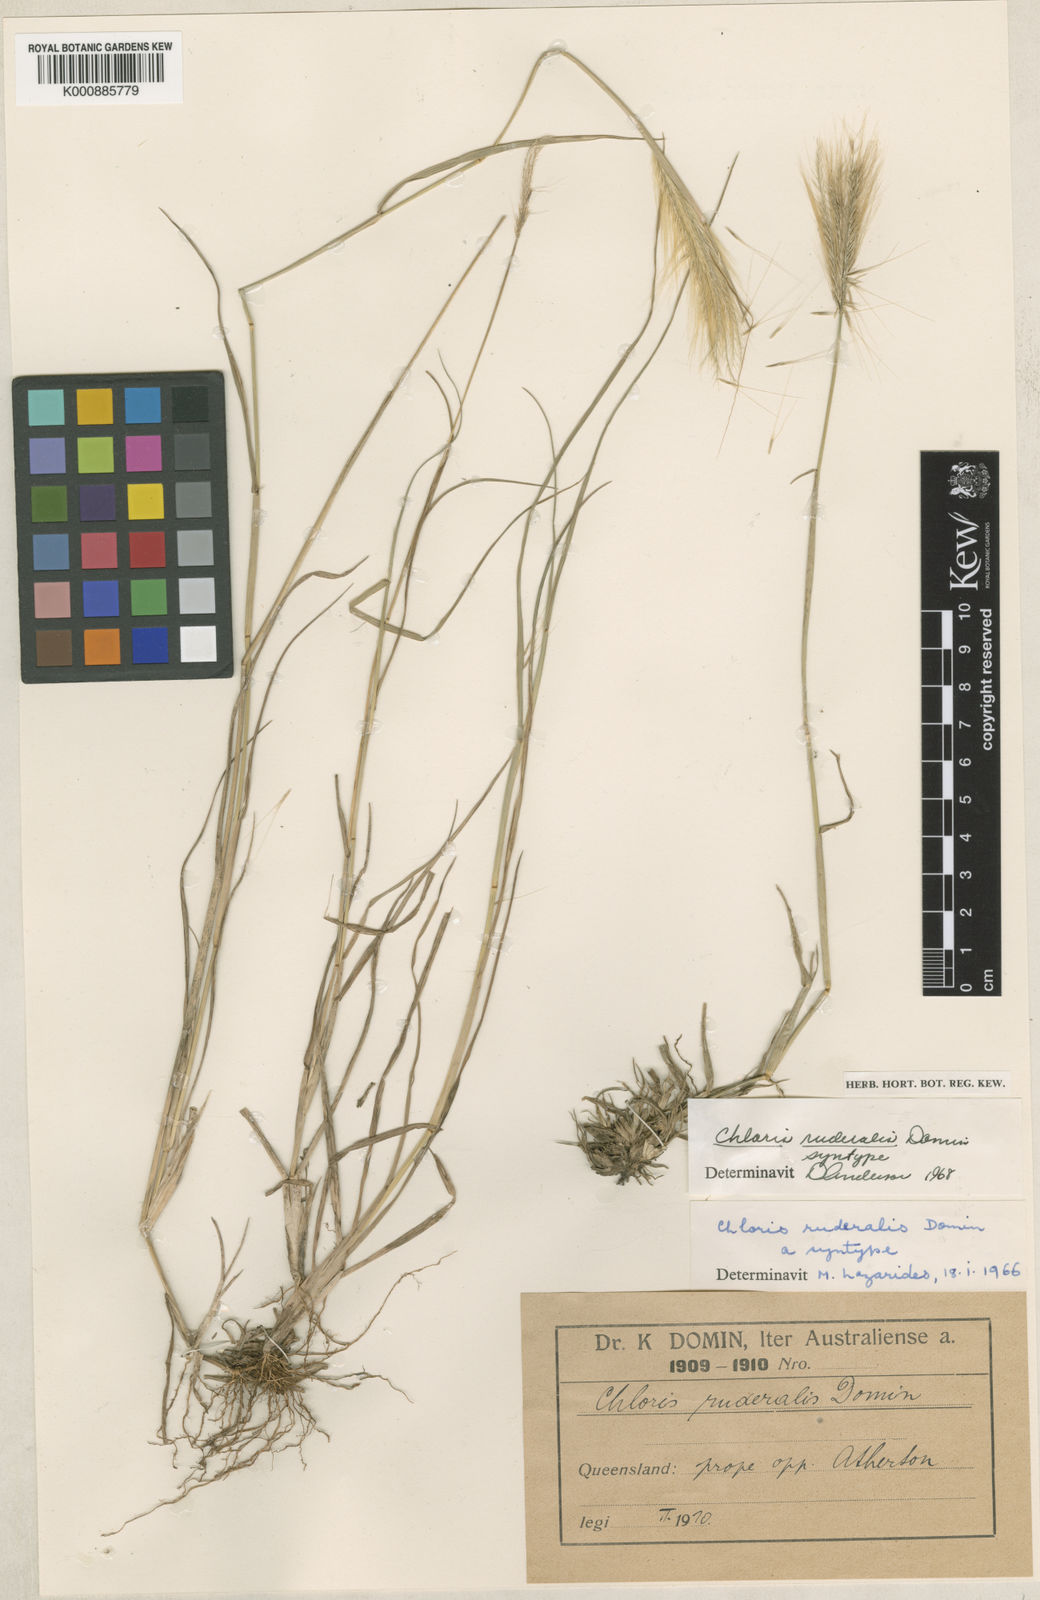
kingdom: Plantae
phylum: Tracheophyta
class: Liliopsida
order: Poales
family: Poaceae
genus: Chloris
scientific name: Chloris pumilio
